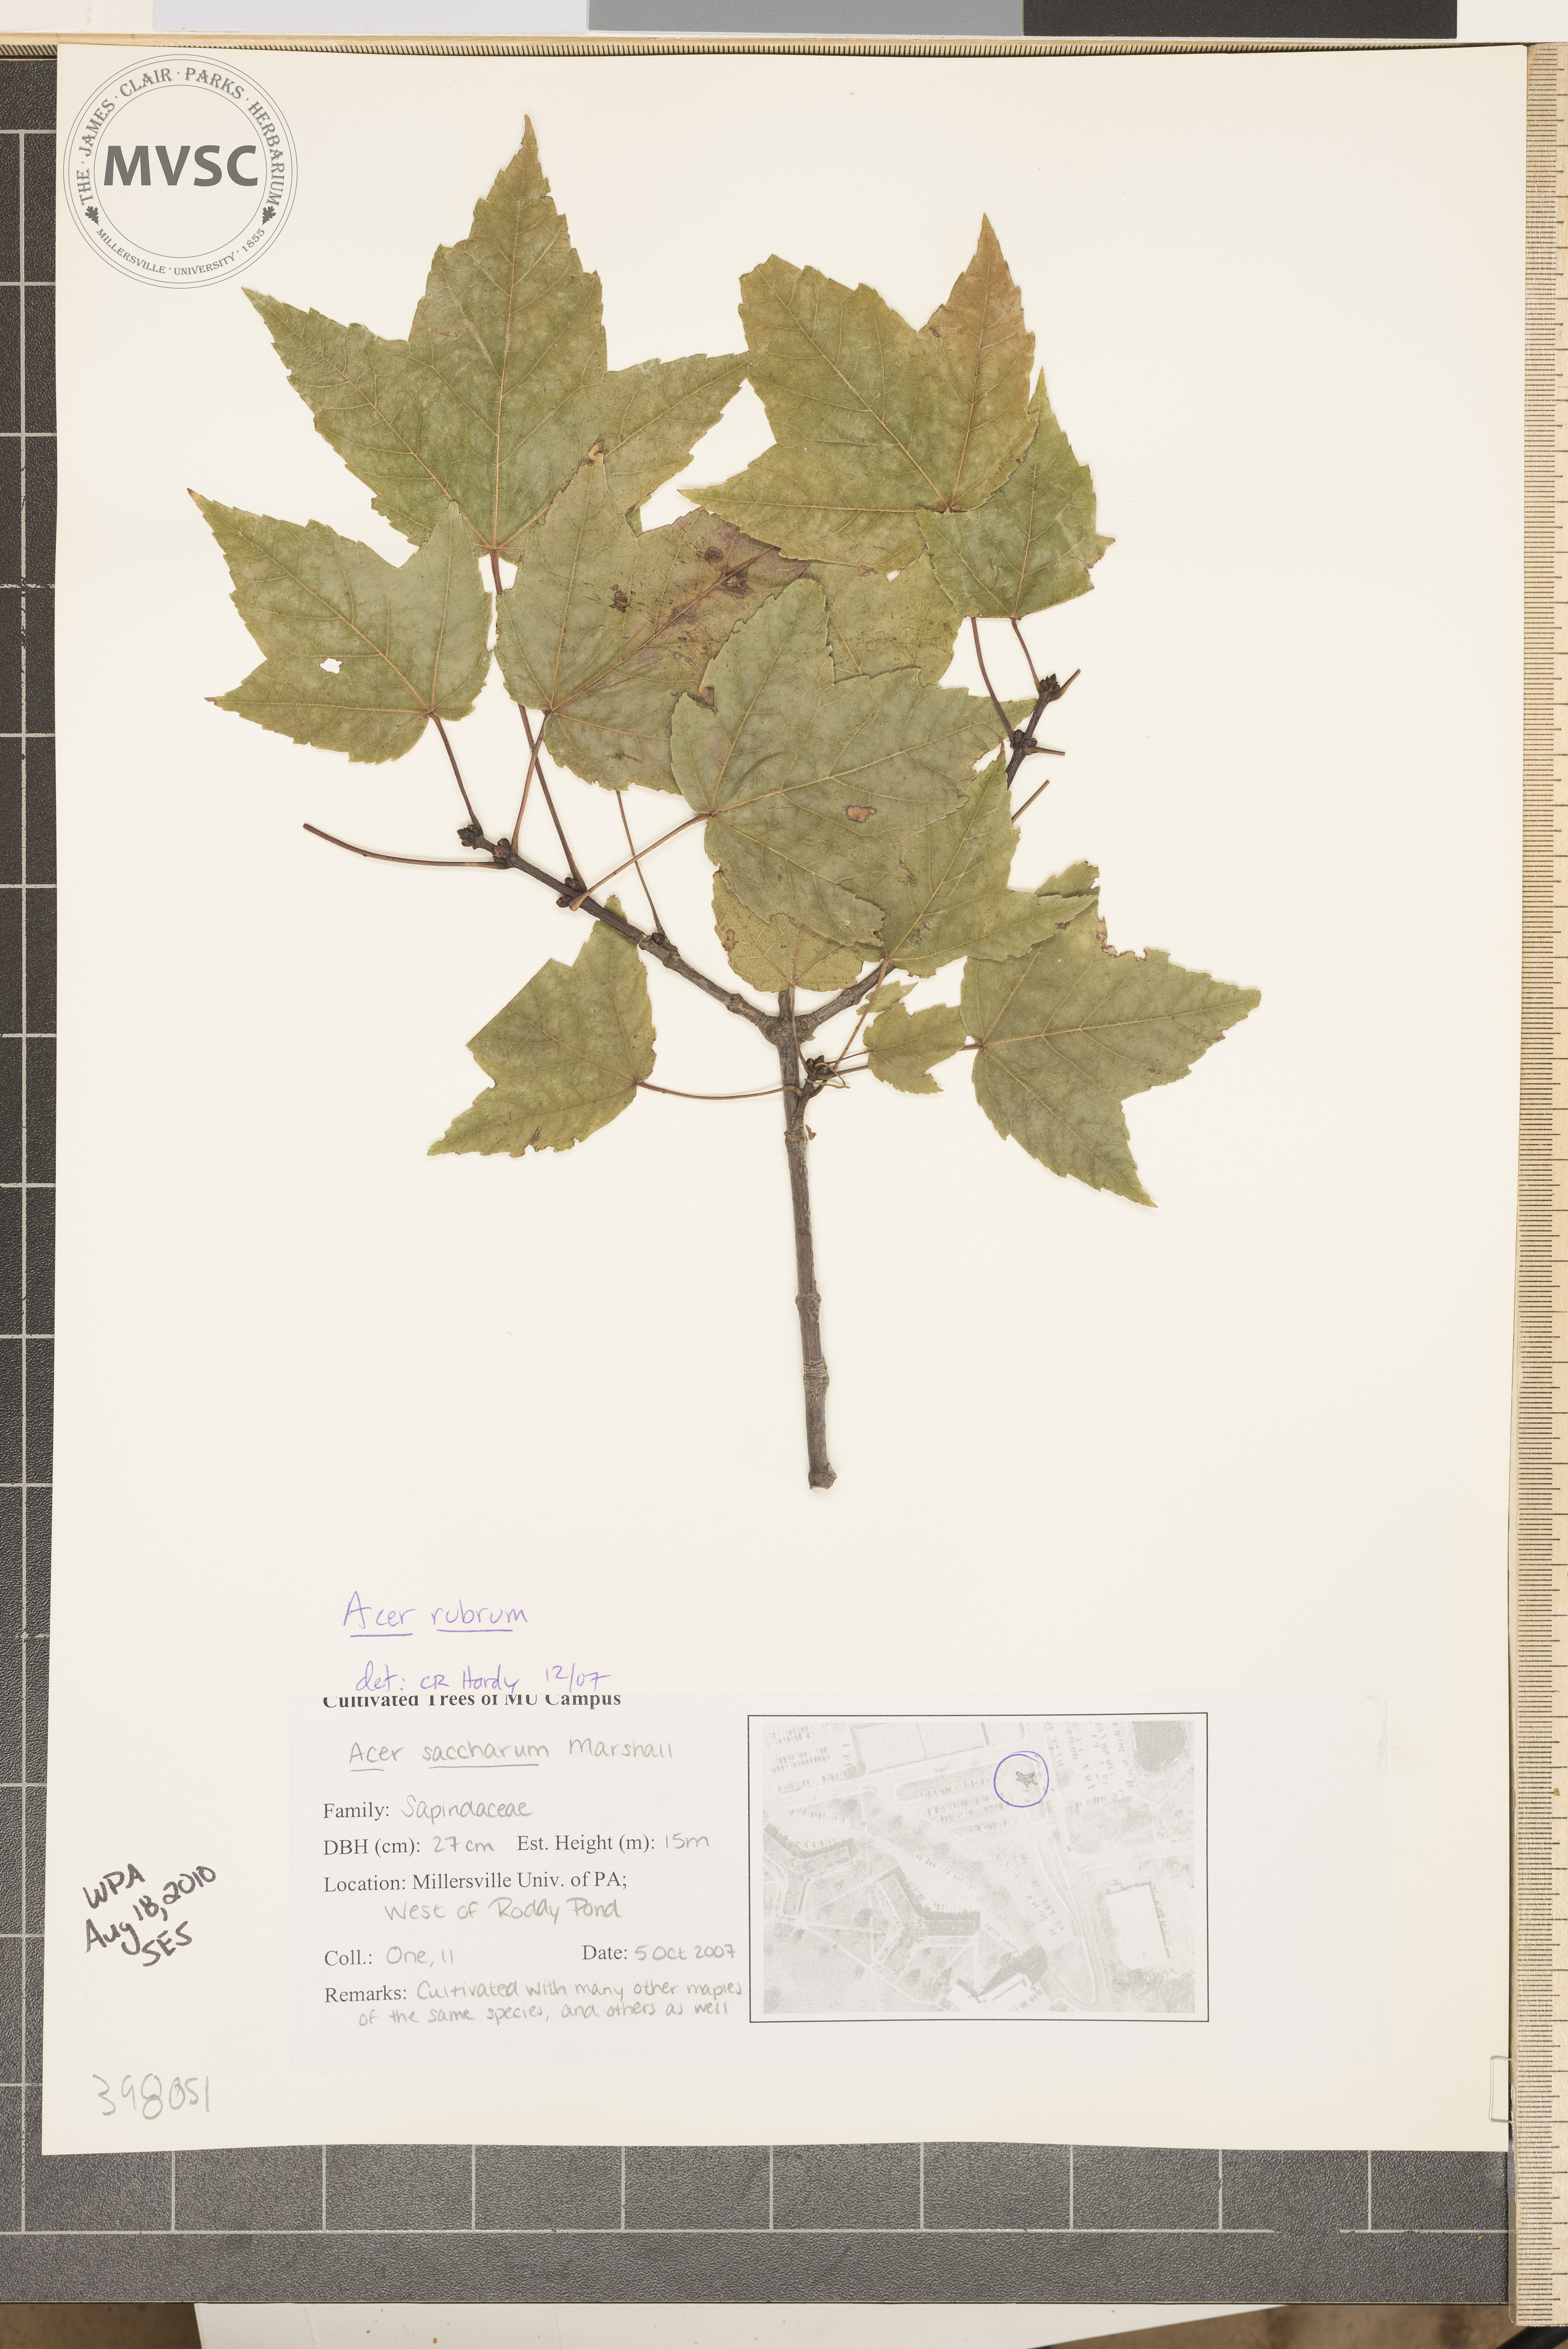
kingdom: Plantae
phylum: Tracheophyta
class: Magnoliopsida
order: Sapindales
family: Sapindaceae
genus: Acer
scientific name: Acer rubrum
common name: Red maple
